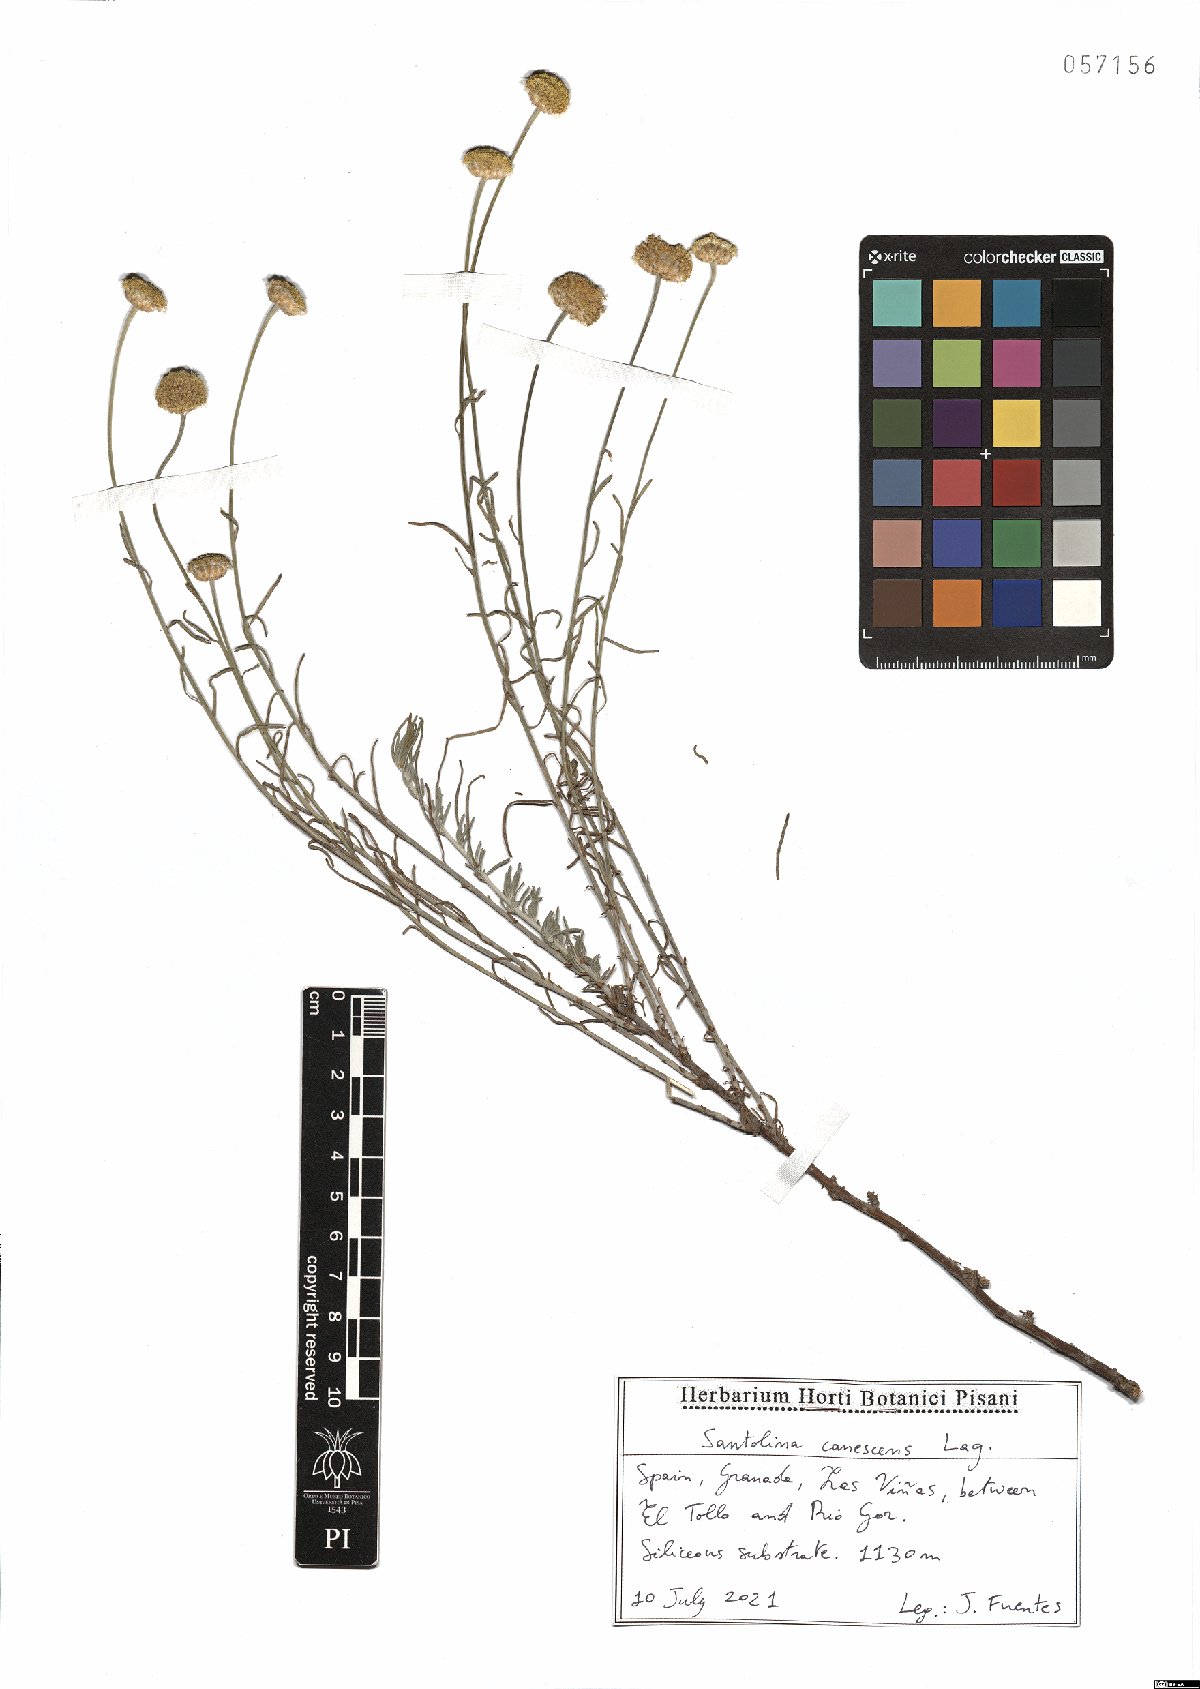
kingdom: Plantae
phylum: Tracheophyta
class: Magnoliopsida
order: Asterales
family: Asteraceae
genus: Santolina
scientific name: Santolina canescens
